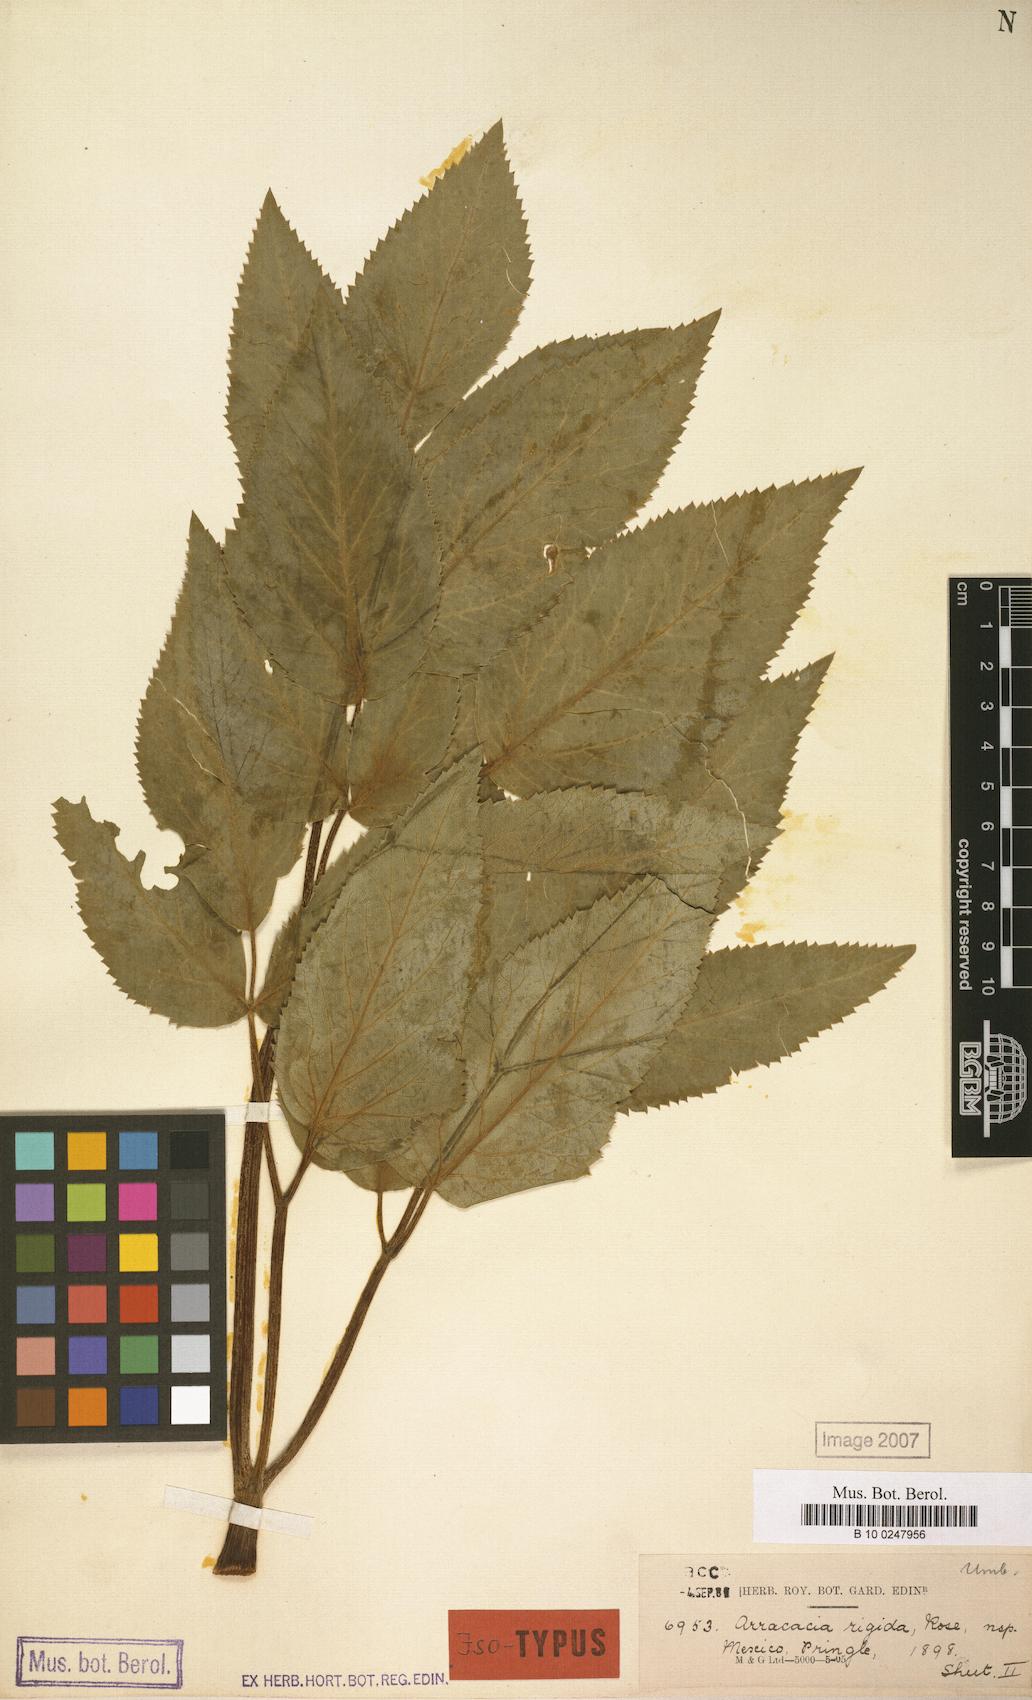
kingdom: Plantae
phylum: Tracheophyta
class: Magnoliopsida
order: Apiales
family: Apiaceae
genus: Arracacia
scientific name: Arracacia rigida
